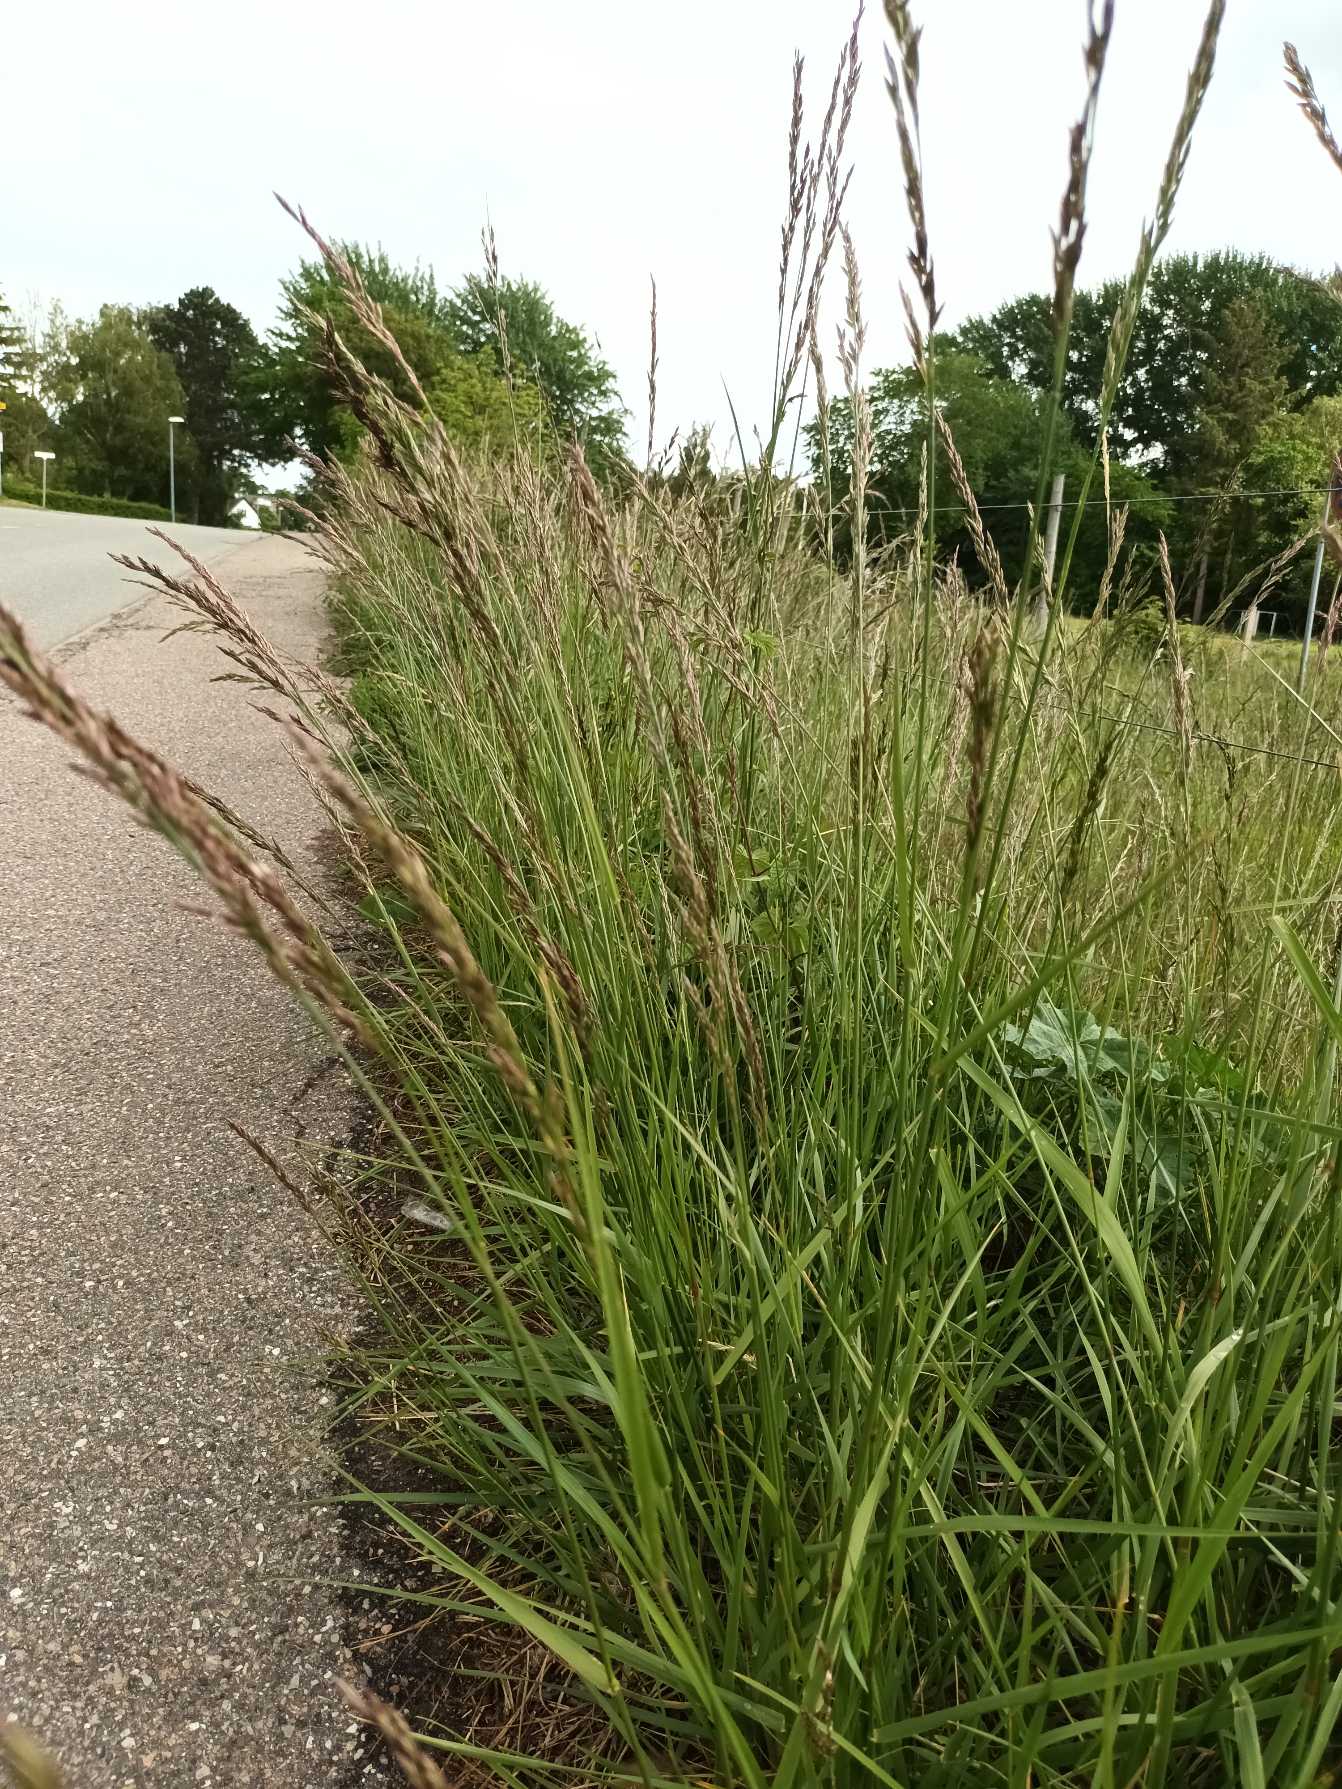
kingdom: Plantae
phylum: Tracheophyta
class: Liliopsida
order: Poales
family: Poaceae
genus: Lolium
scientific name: Lolium arundinaceum
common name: Strand-svingel
